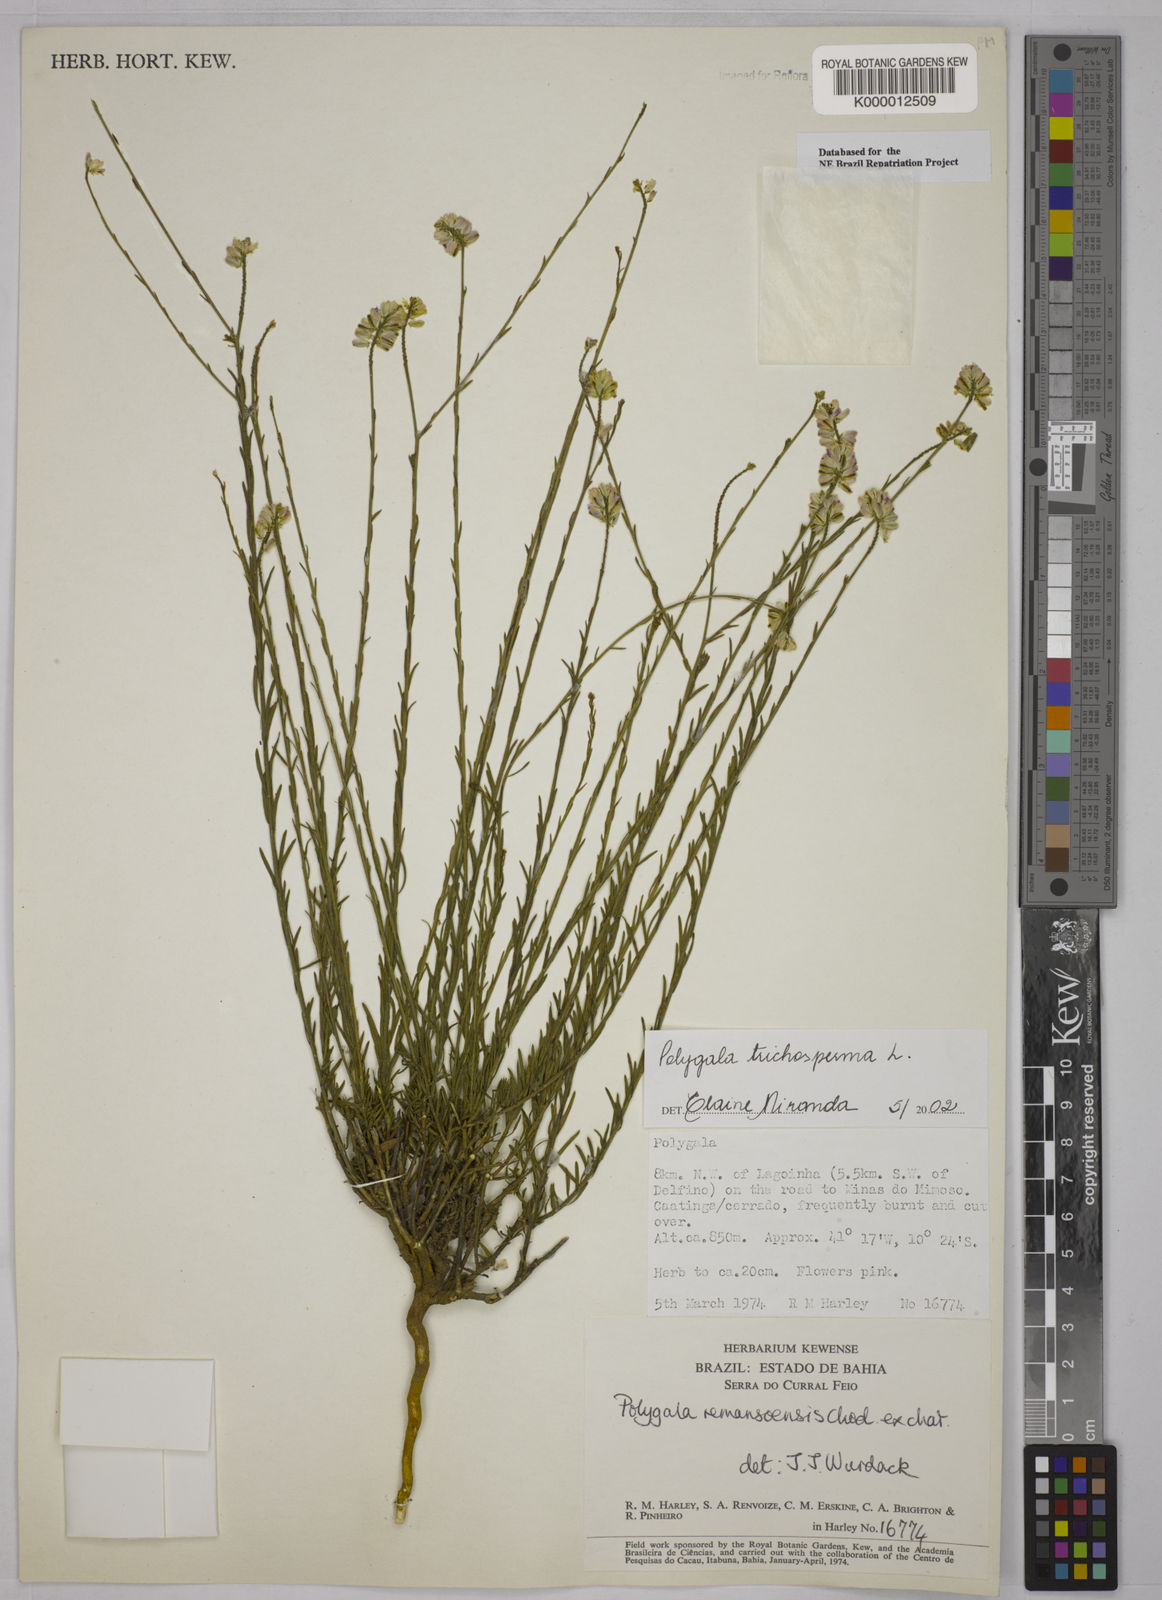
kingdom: Plantae
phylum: Tracheophyta
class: Magnoliopsida
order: Fabales
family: Polygalaceae
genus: Polygala
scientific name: Polygala
